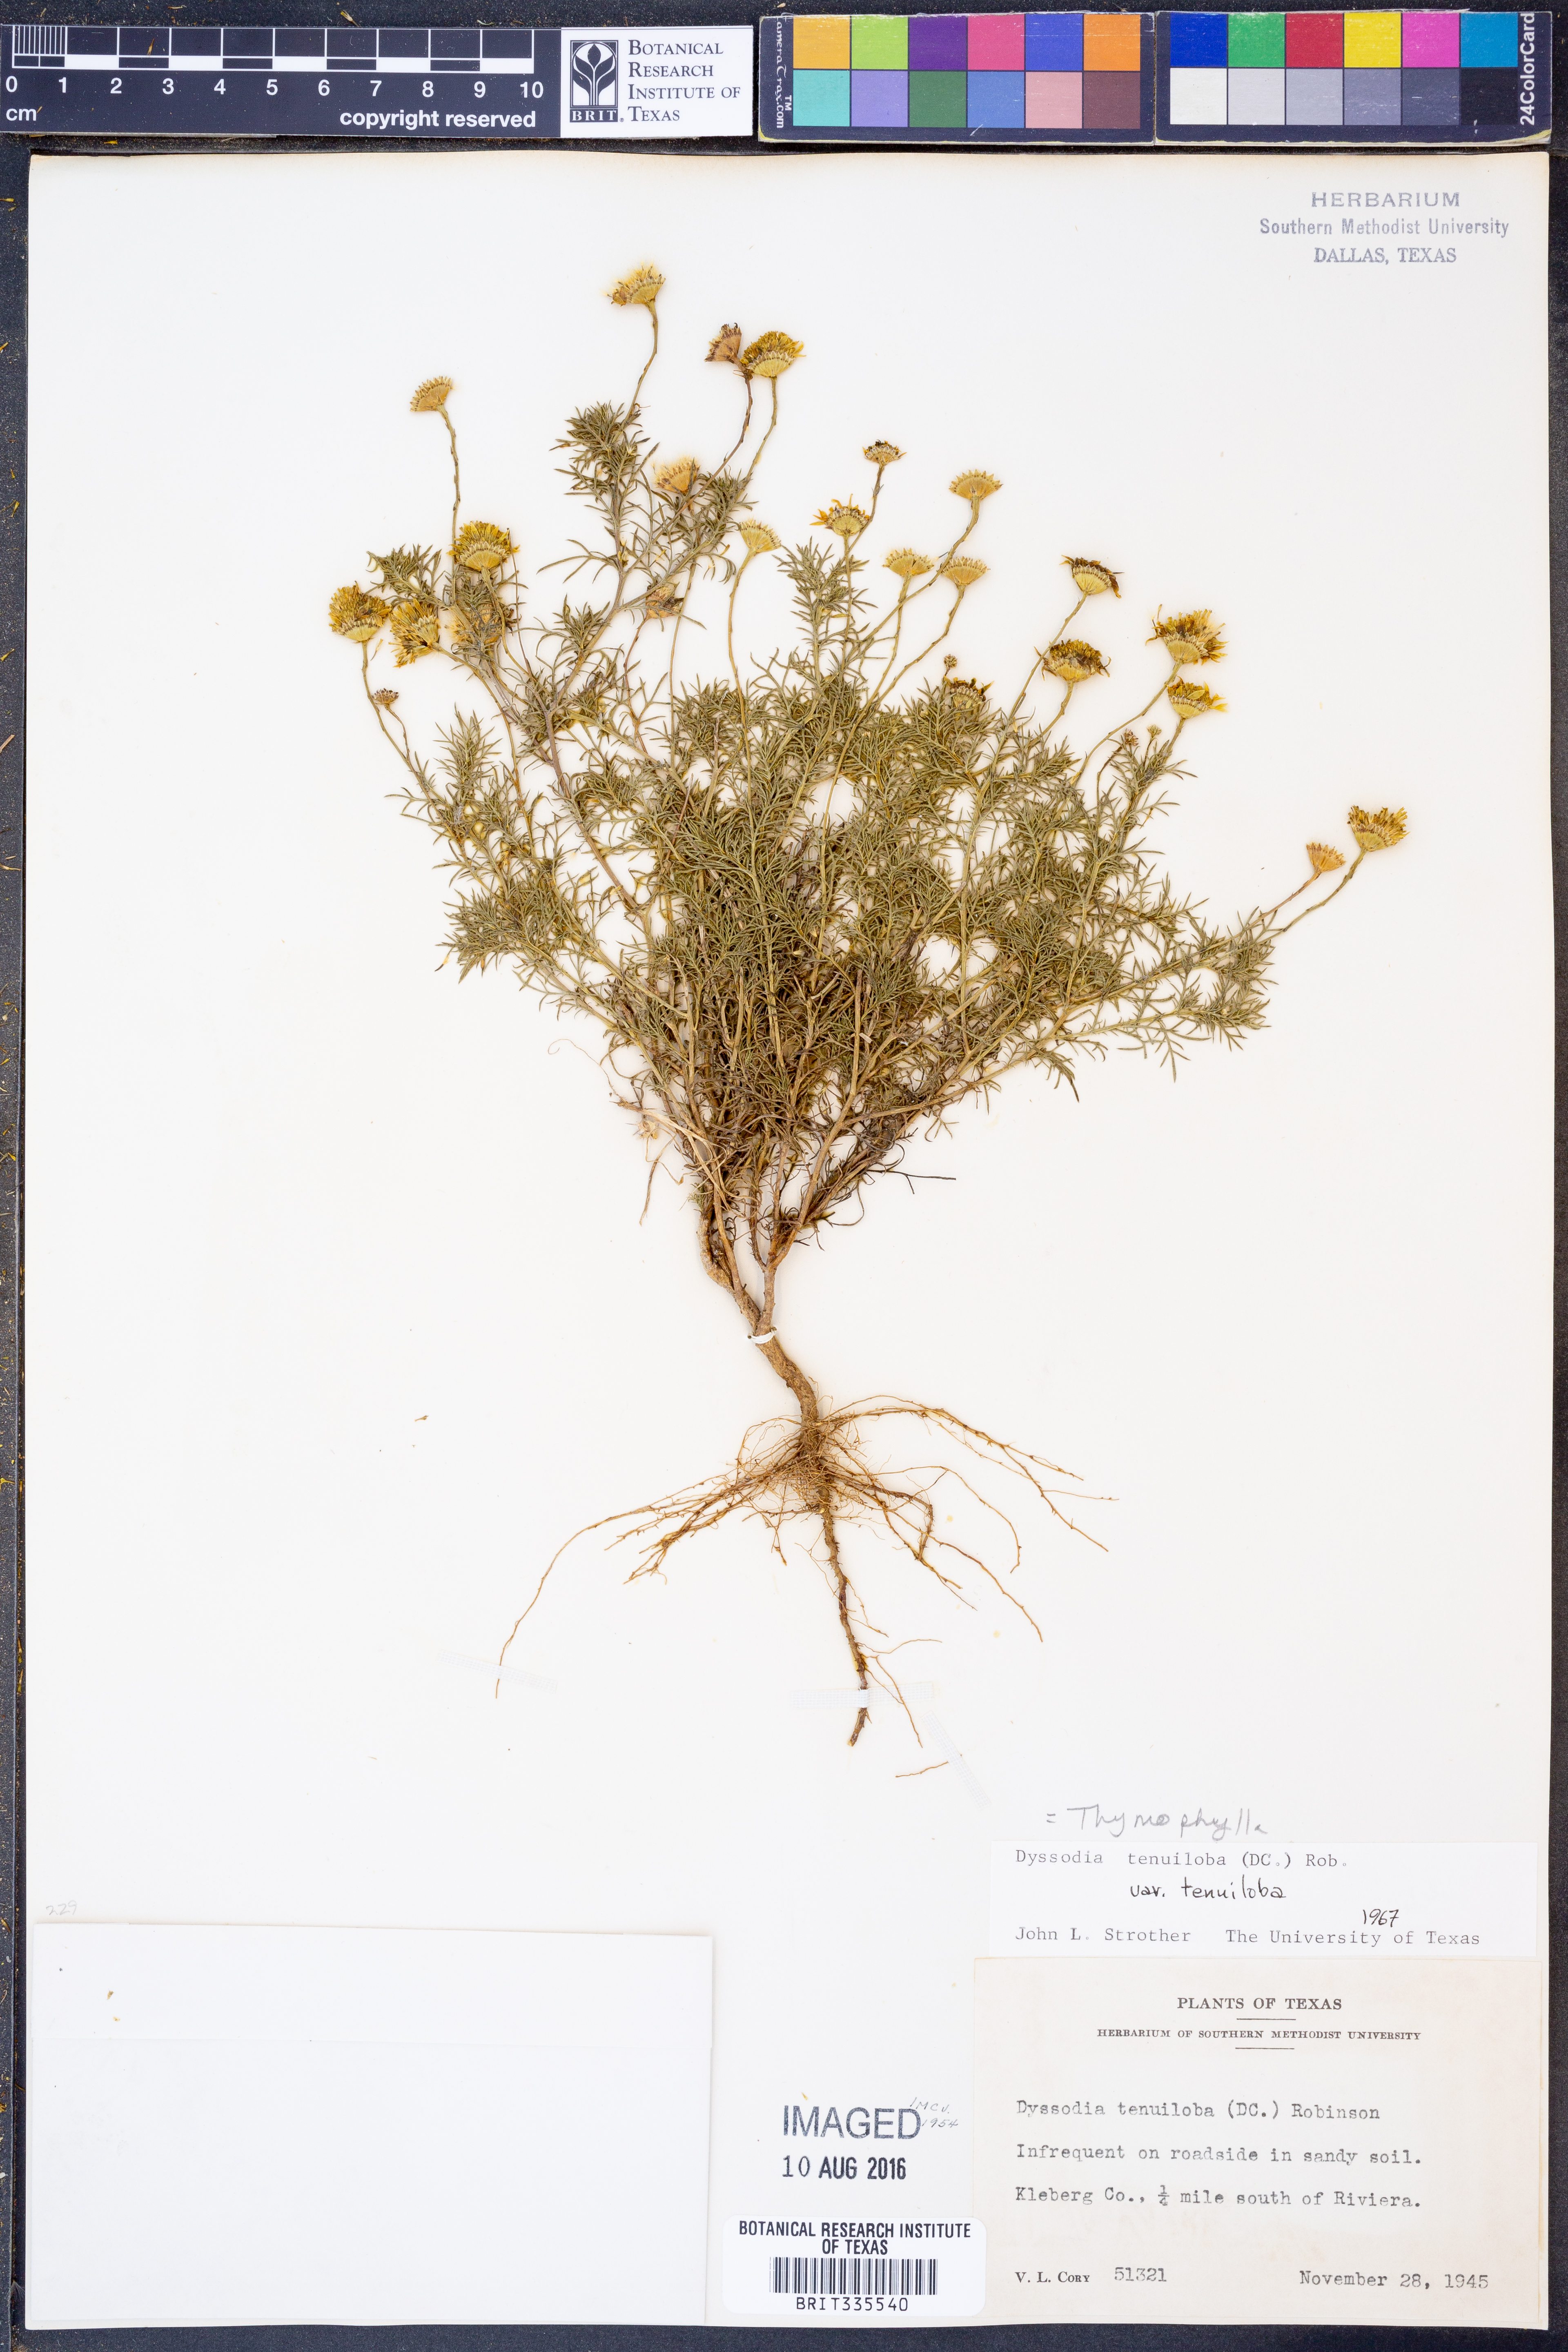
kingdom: Plantae
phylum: Tracheophyta
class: Magnoliopsida
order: Asterales
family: Asteraceae
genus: Thymophylla
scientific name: Thymophylla tenuiloba
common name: Dahlberg's daisy
